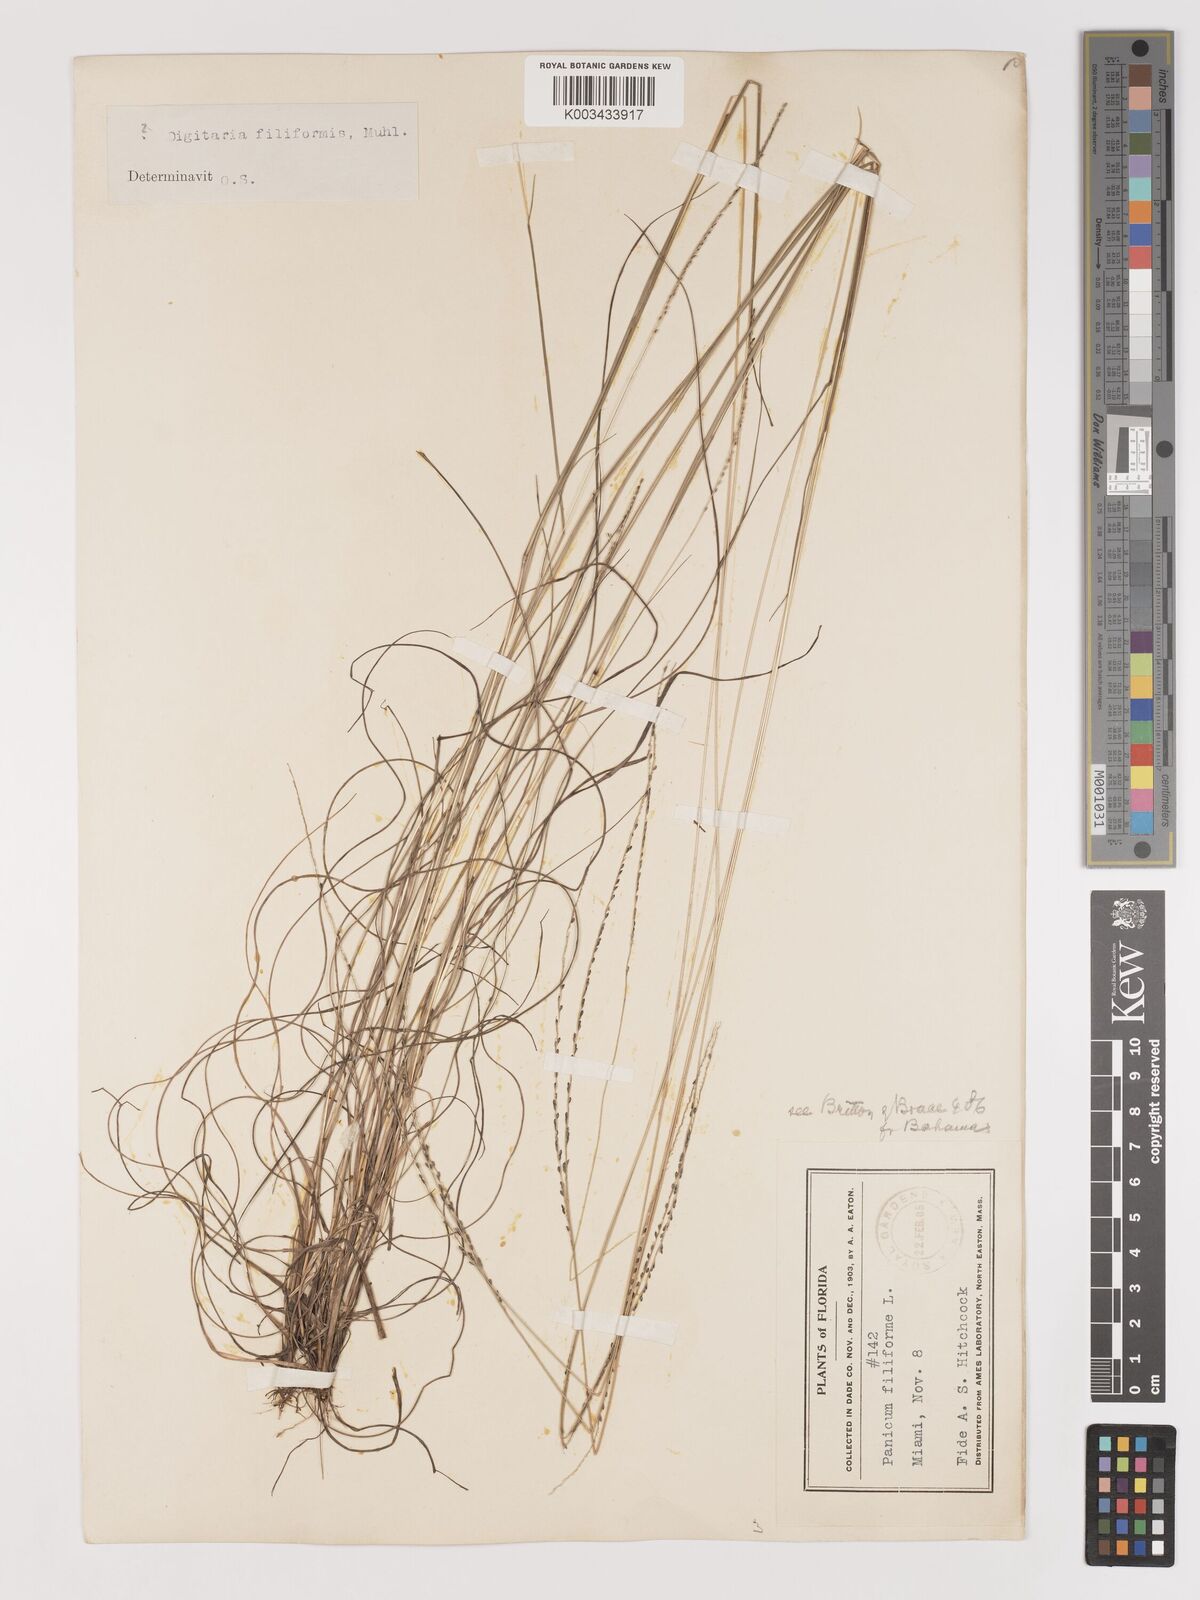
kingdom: Plantae
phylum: Tracheophyta
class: Liliopsida
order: Poales
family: Poaceae
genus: Digitaria
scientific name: Digitaria filiformis
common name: Slender crabgrass
